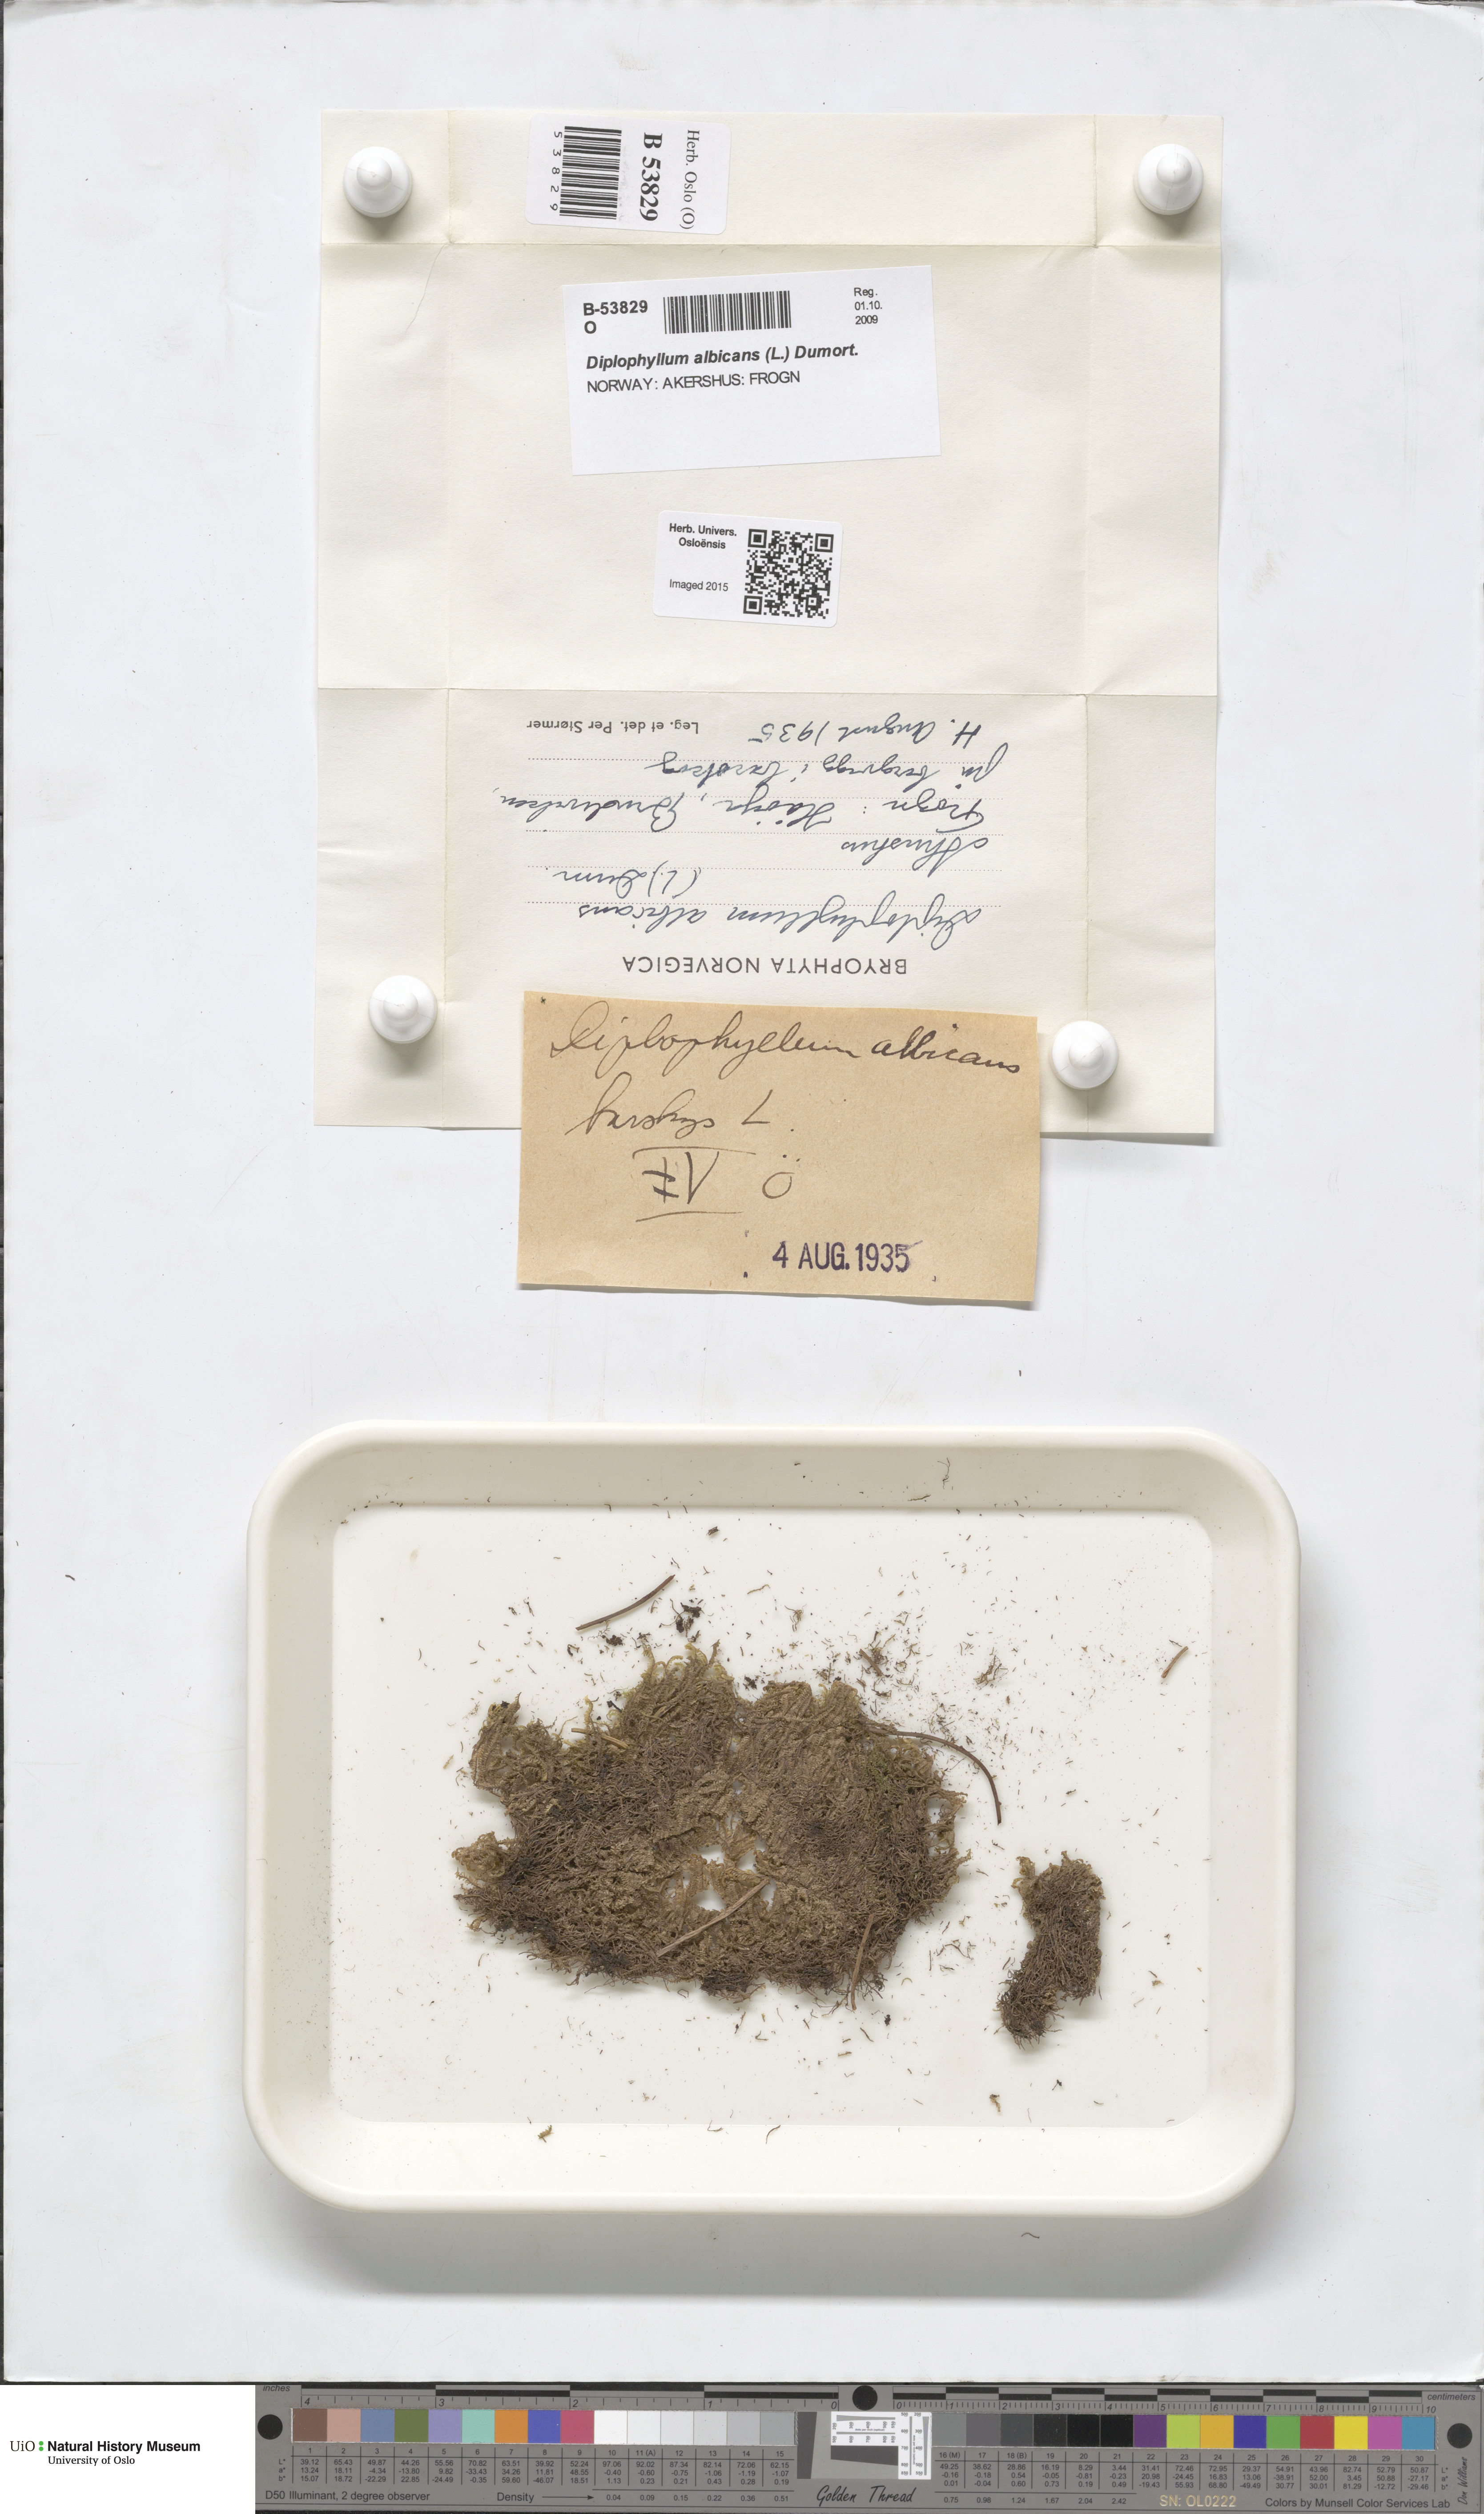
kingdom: Plantae
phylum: Marchantiophyta
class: Jungermanniopsida
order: Jungermanniales
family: Scapaniaceae
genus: Diplophyllum
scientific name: Diplophyllum albicans
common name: White earwort
